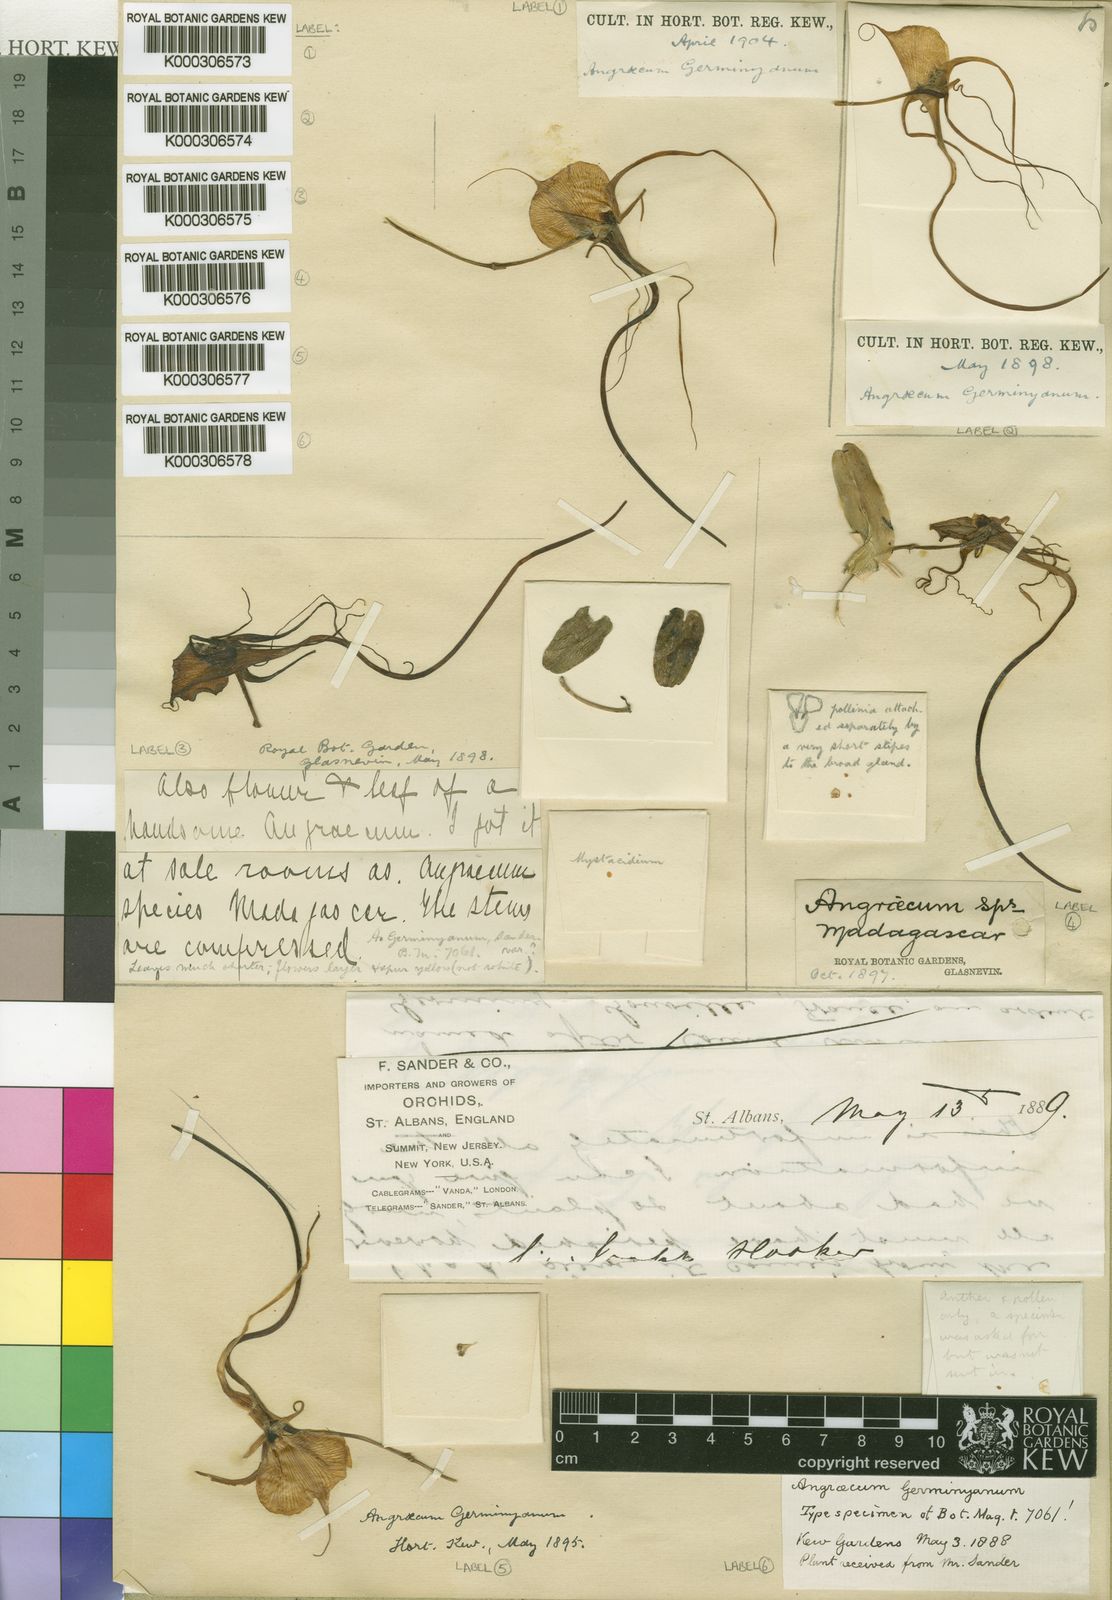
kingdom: Plantae
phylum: Tracheophyta
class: Liliopsida
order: Asparagales
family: Orchidaceae
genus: Angraecum
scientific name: Angraecum germinyanum
